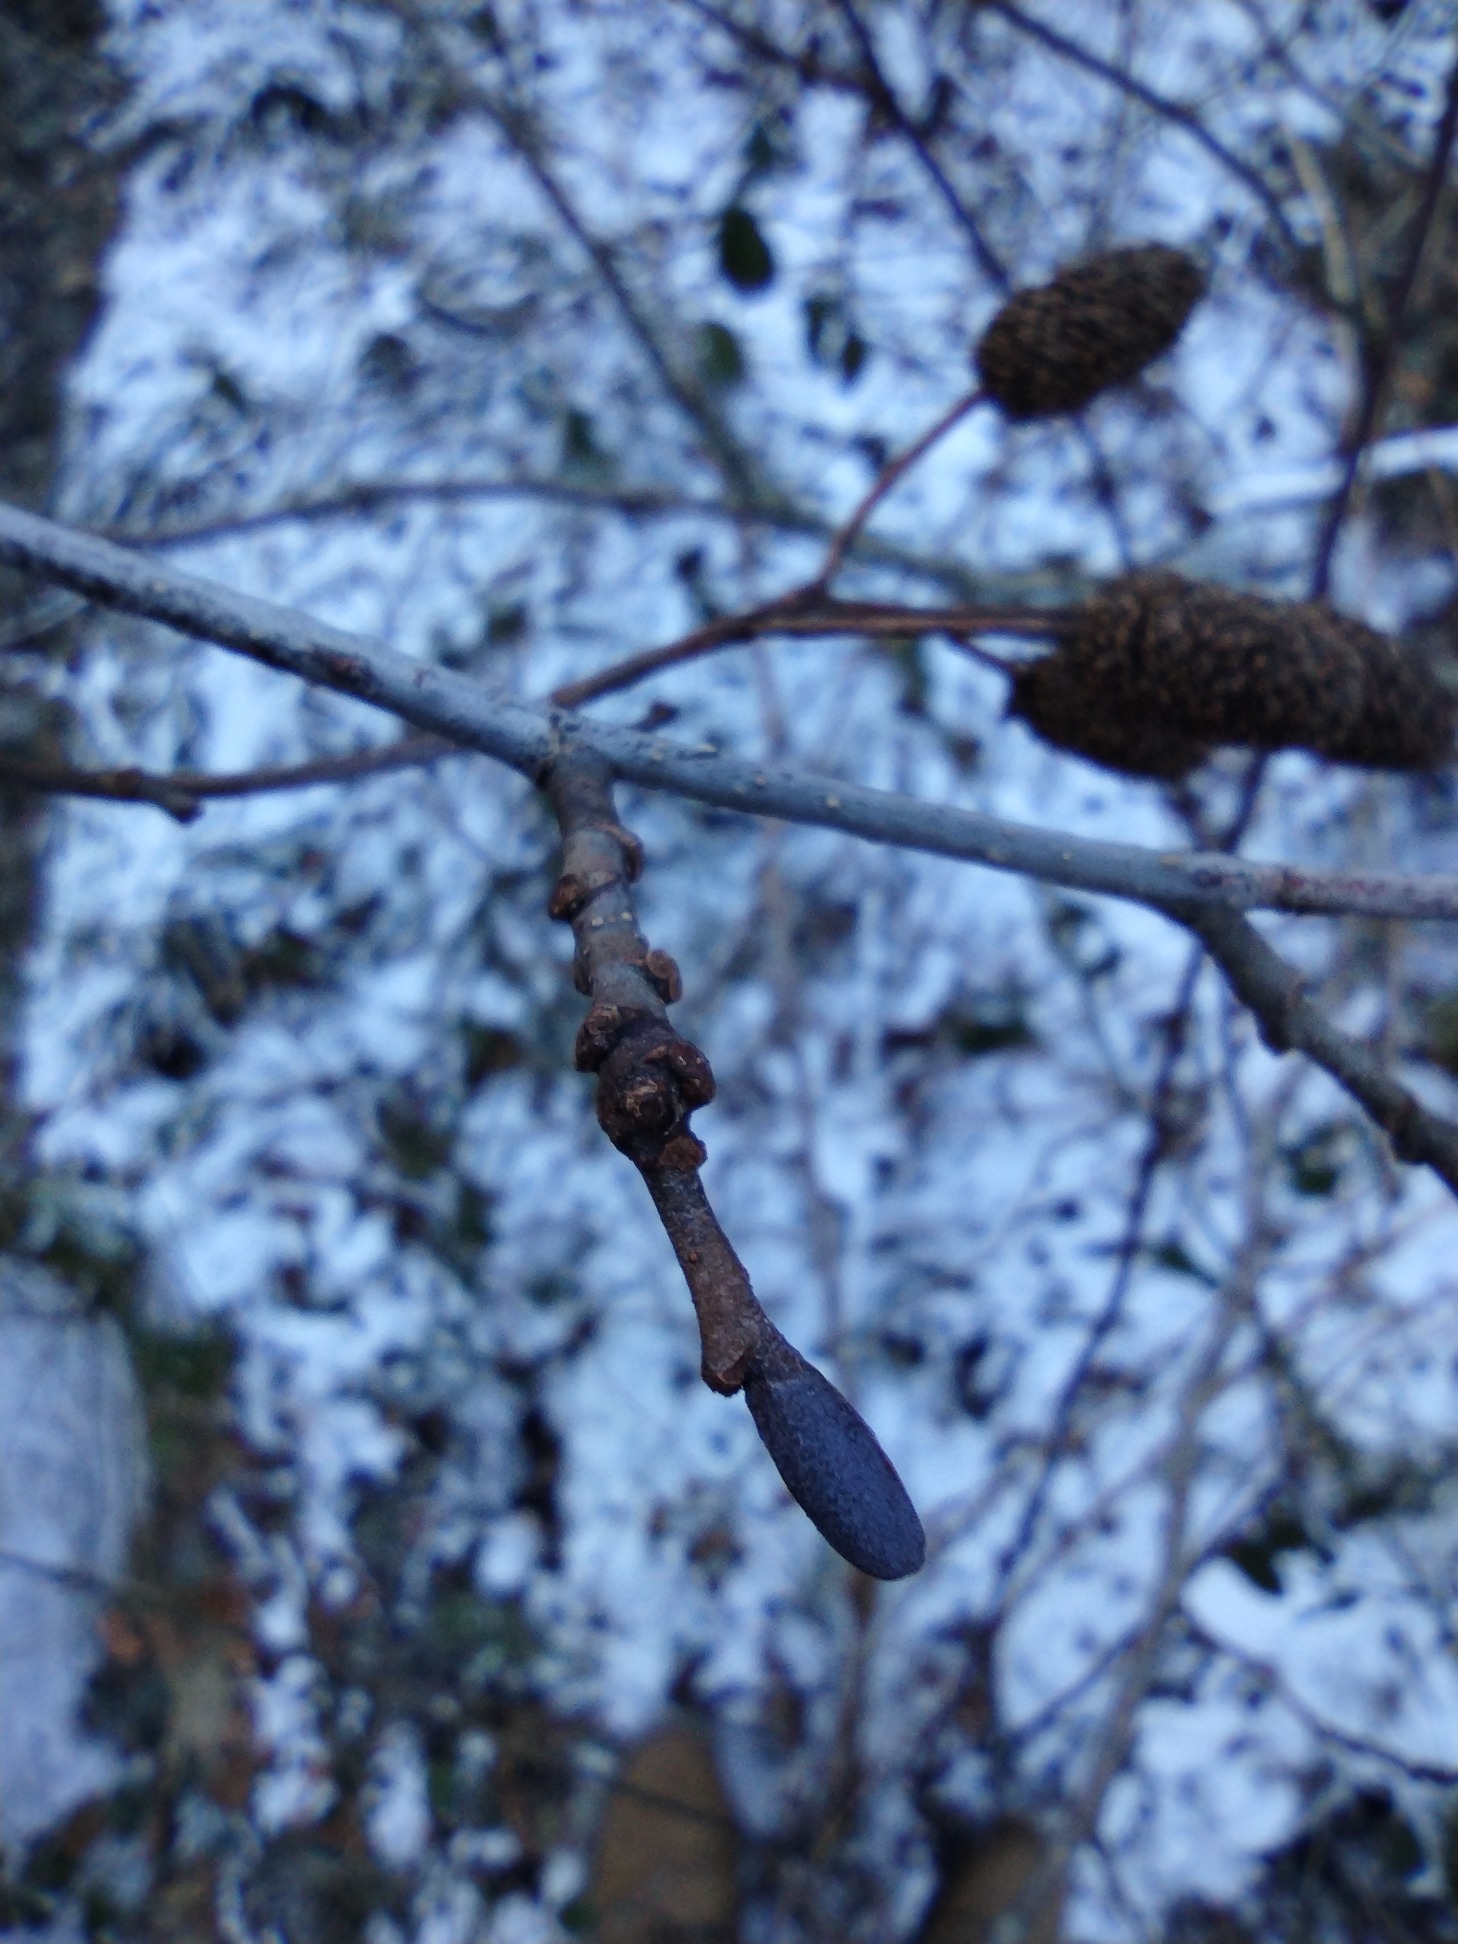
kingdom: Plantae
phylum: Tracheophyta
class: Magnoliopsida
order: Fagales
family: Betulaceae
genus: Alnus
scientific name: Alnus glutinosa
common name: Rød-el
